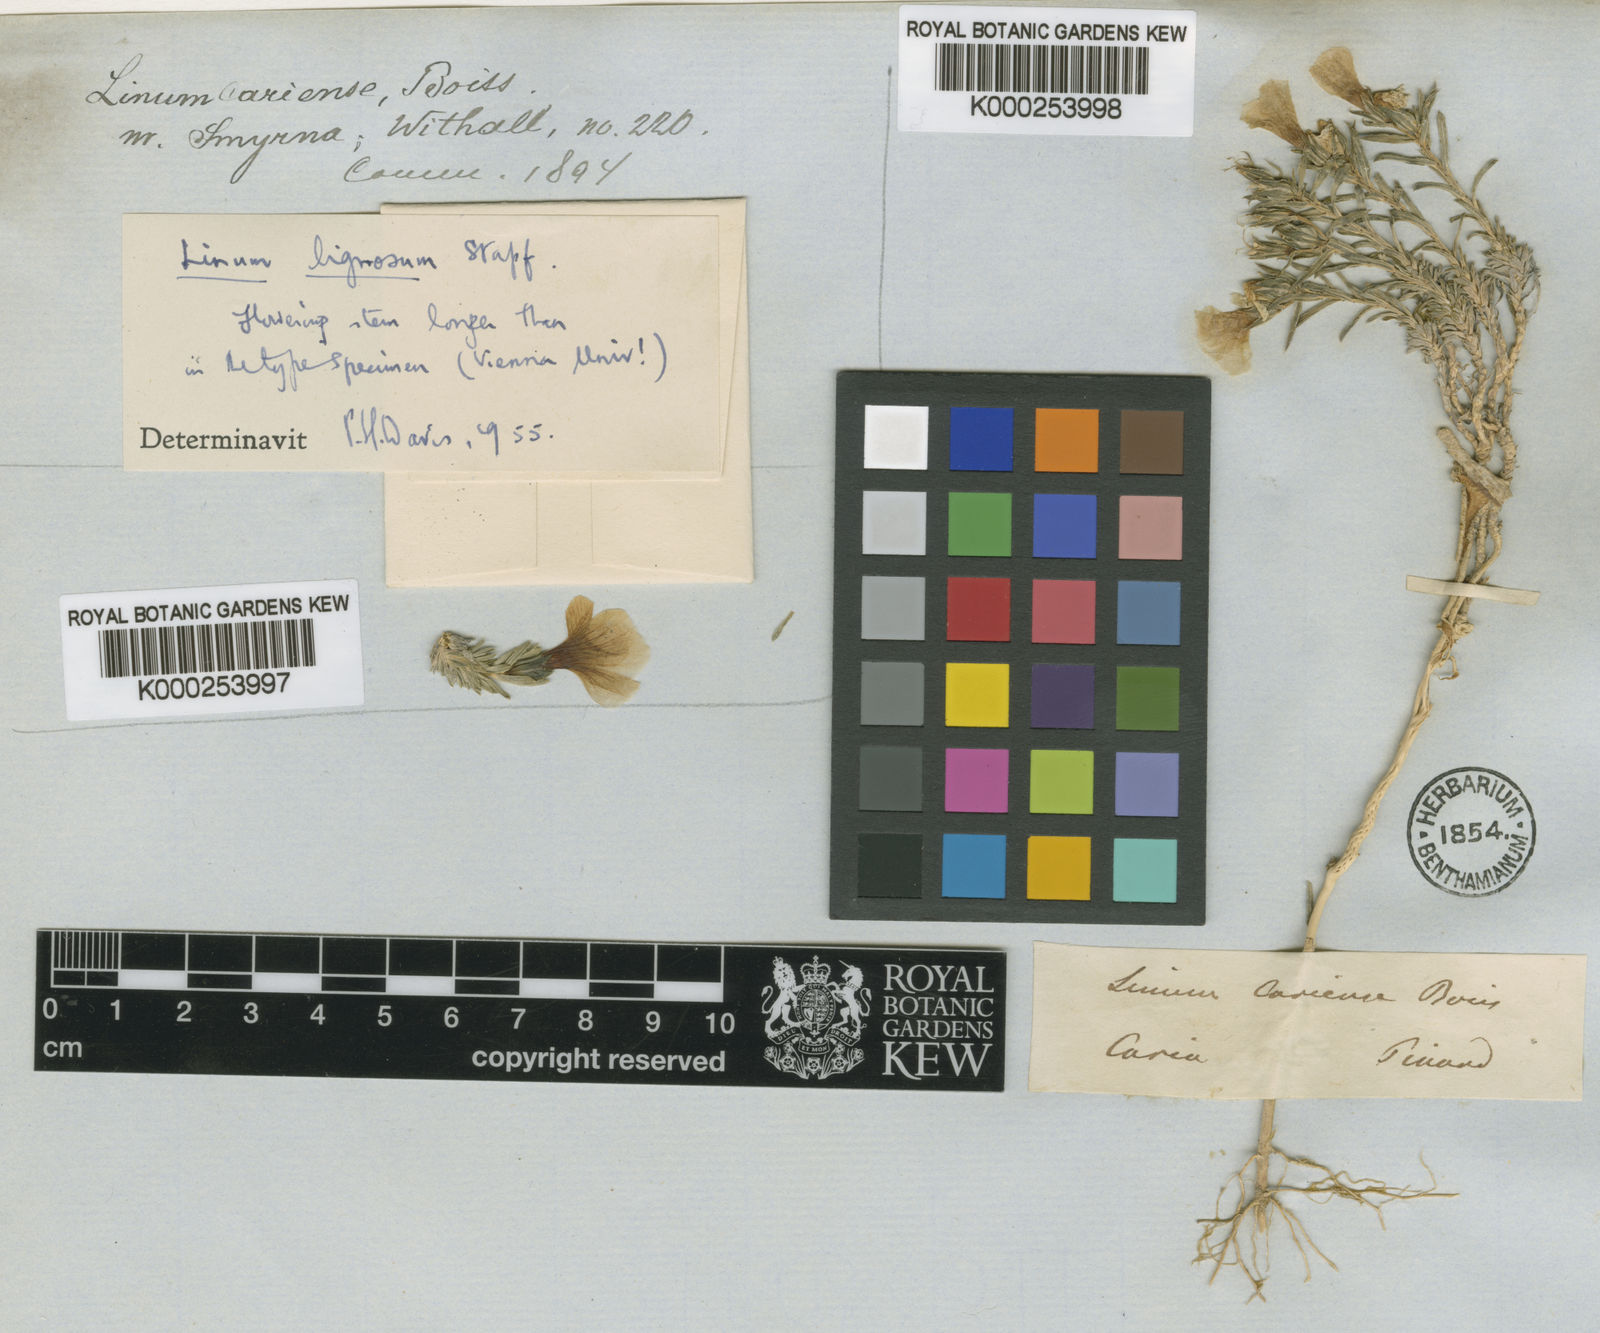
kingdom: Plantae
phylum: Tracheophyta
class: Magnoliopsida
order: Malpighiales
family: Linaceae
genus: Linum
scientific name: Linum cariense
